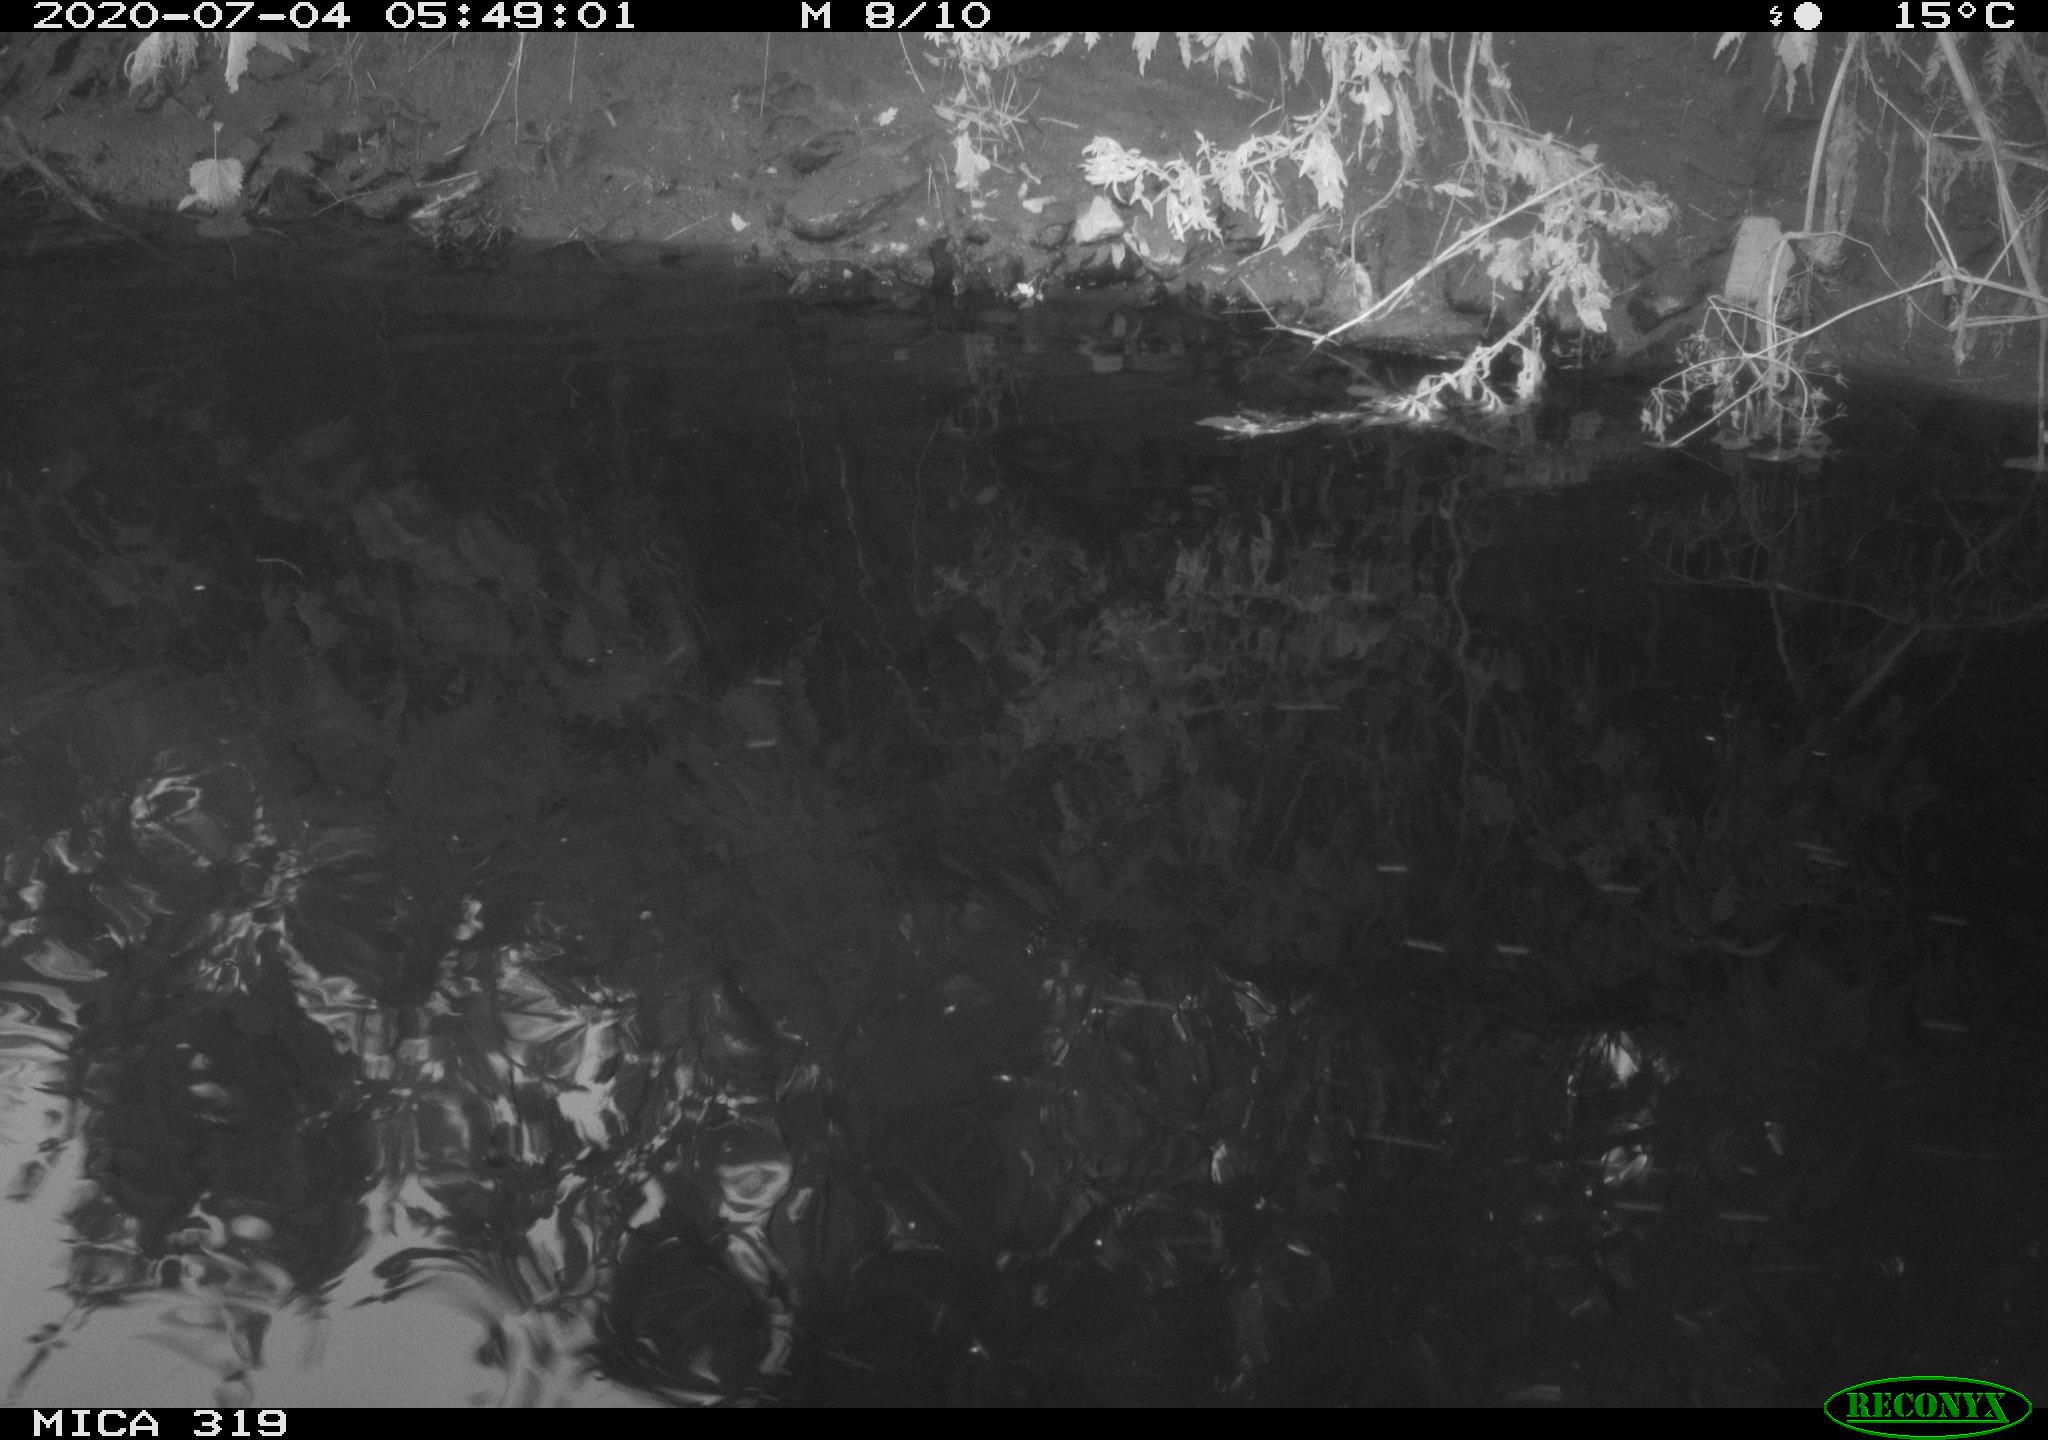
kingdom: Animalia
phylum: Chordata
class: Aves
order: Anseriformes
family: Anatidae
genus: Anas
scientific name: Anas platyrhynchos
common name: Mallard
